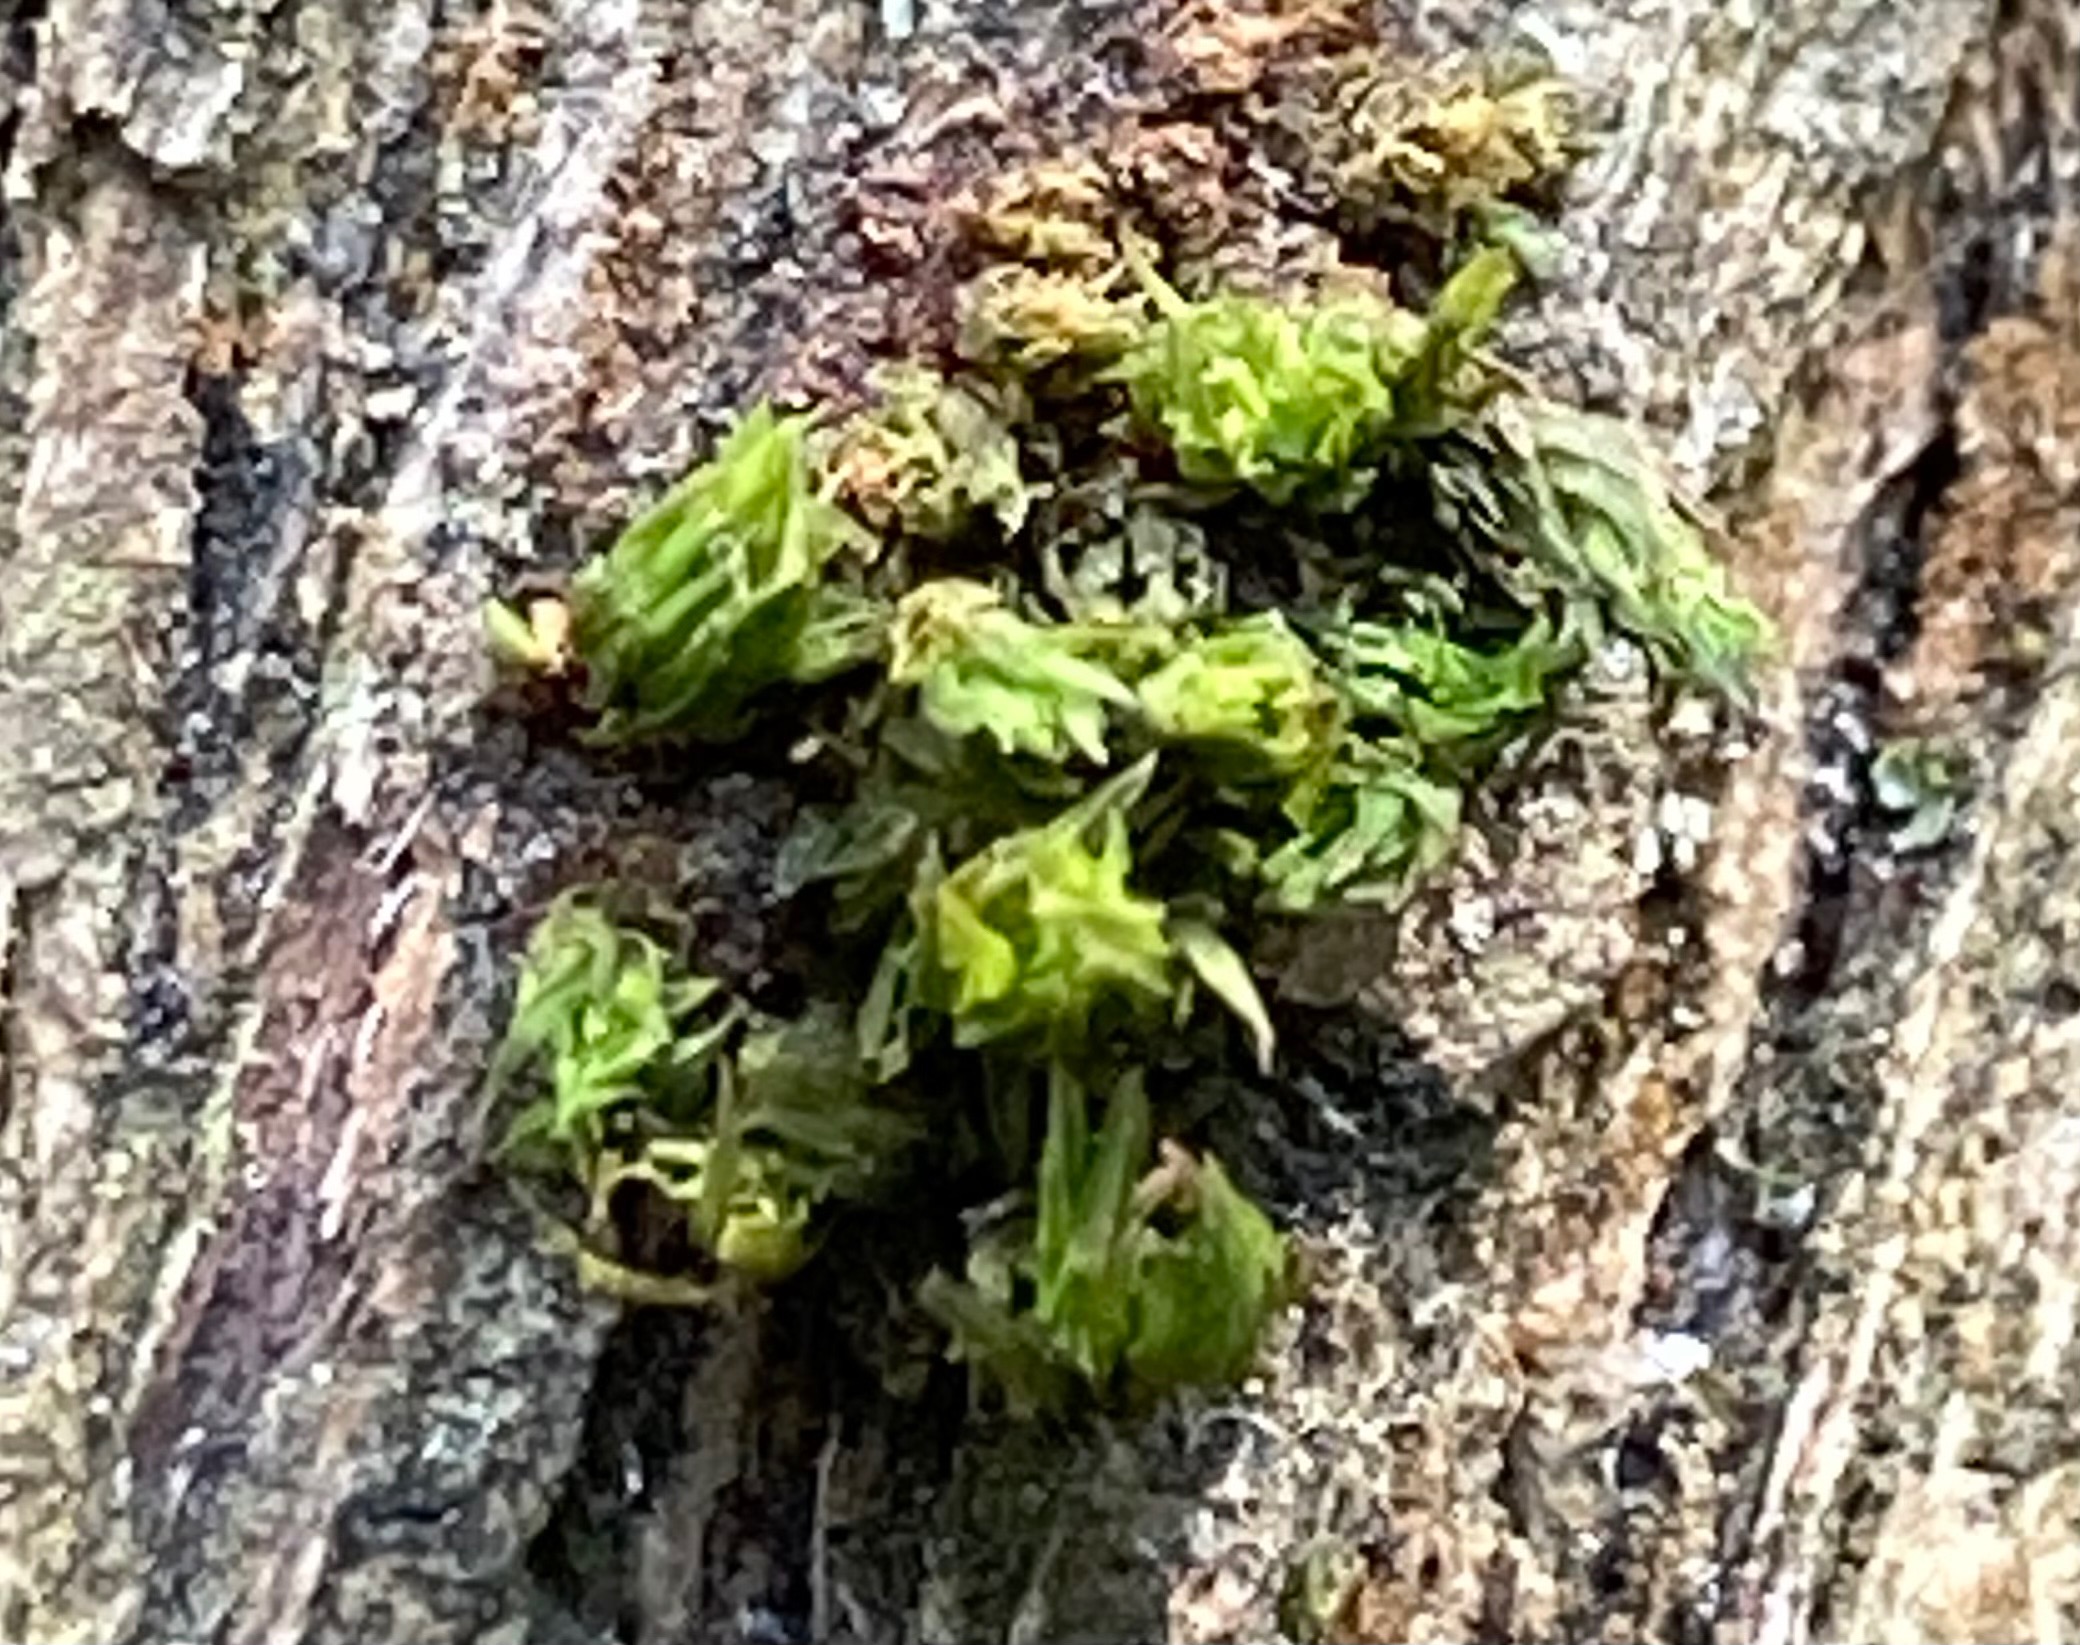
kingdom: Plantae
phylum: Bryophyta
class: Bryopsida
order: Orthotrichales
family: Orthotrichaceae
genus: Orthotrichum
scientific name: Orthotrichum
